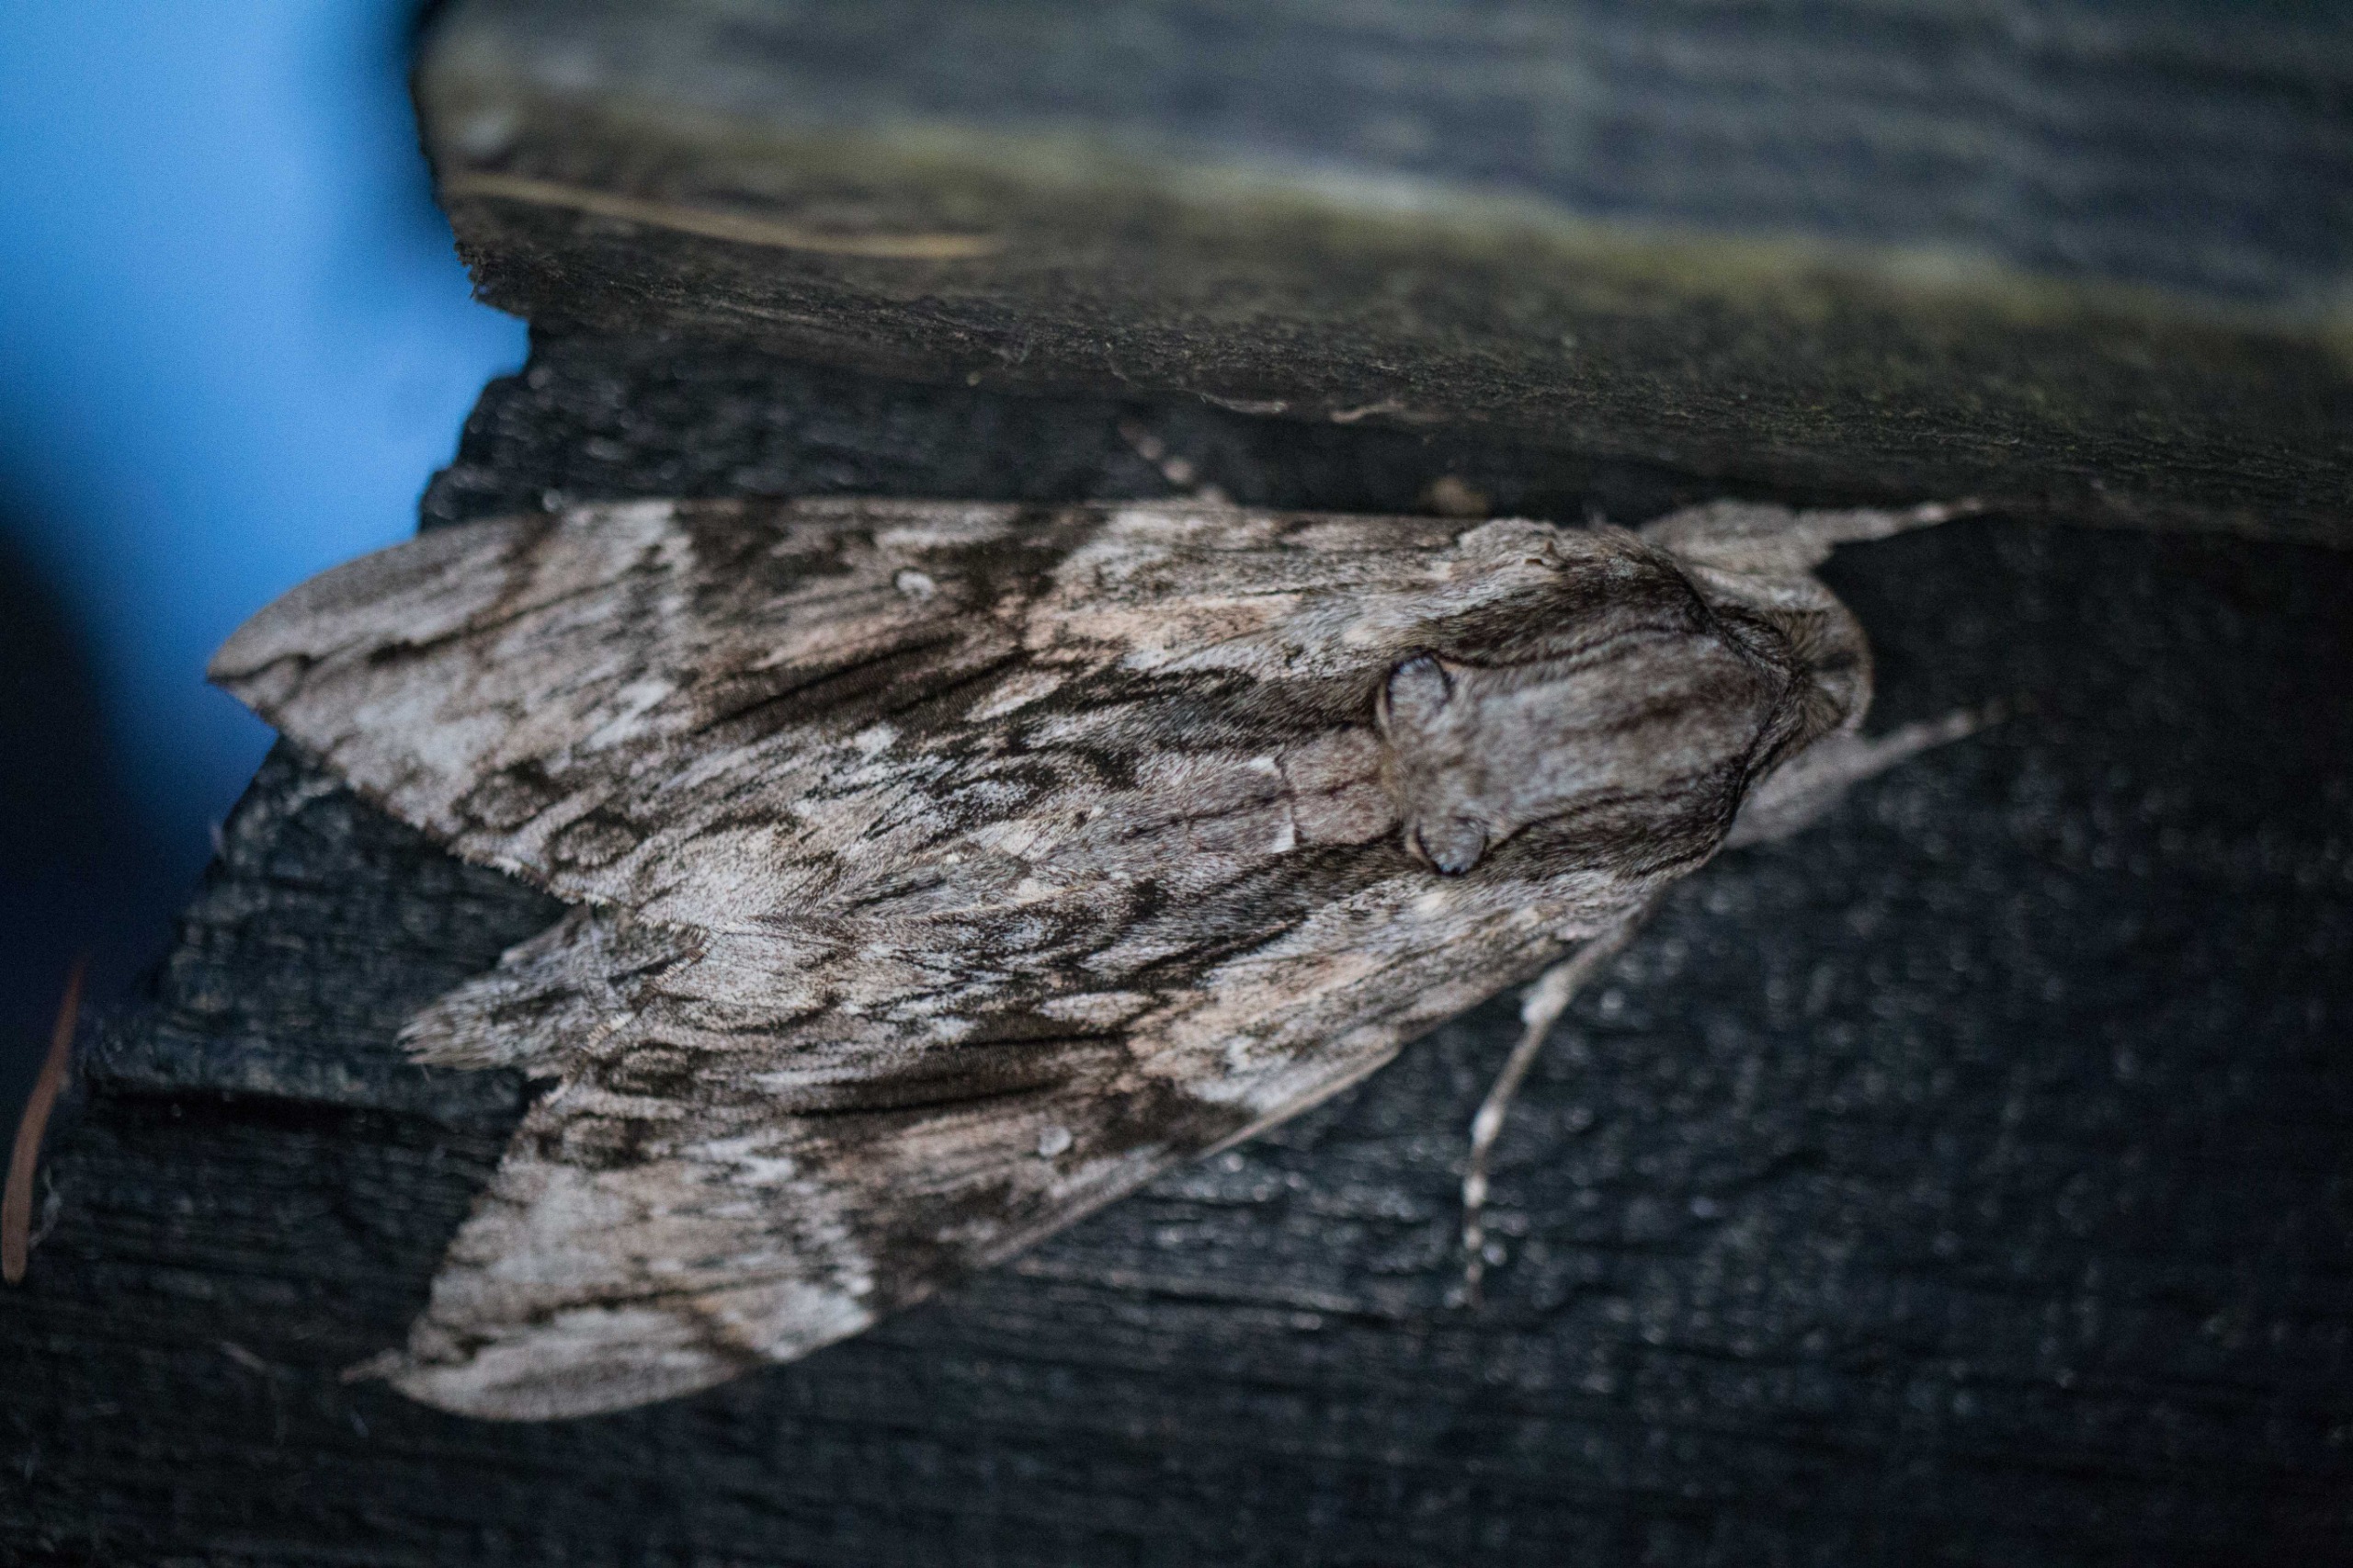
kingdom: Animalia
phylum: Arthropoda
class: Insecta
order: Lepidoptera
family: Sphingidae
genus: Agrius
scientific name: Agrius convolvuli
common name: Snerlesværmer
